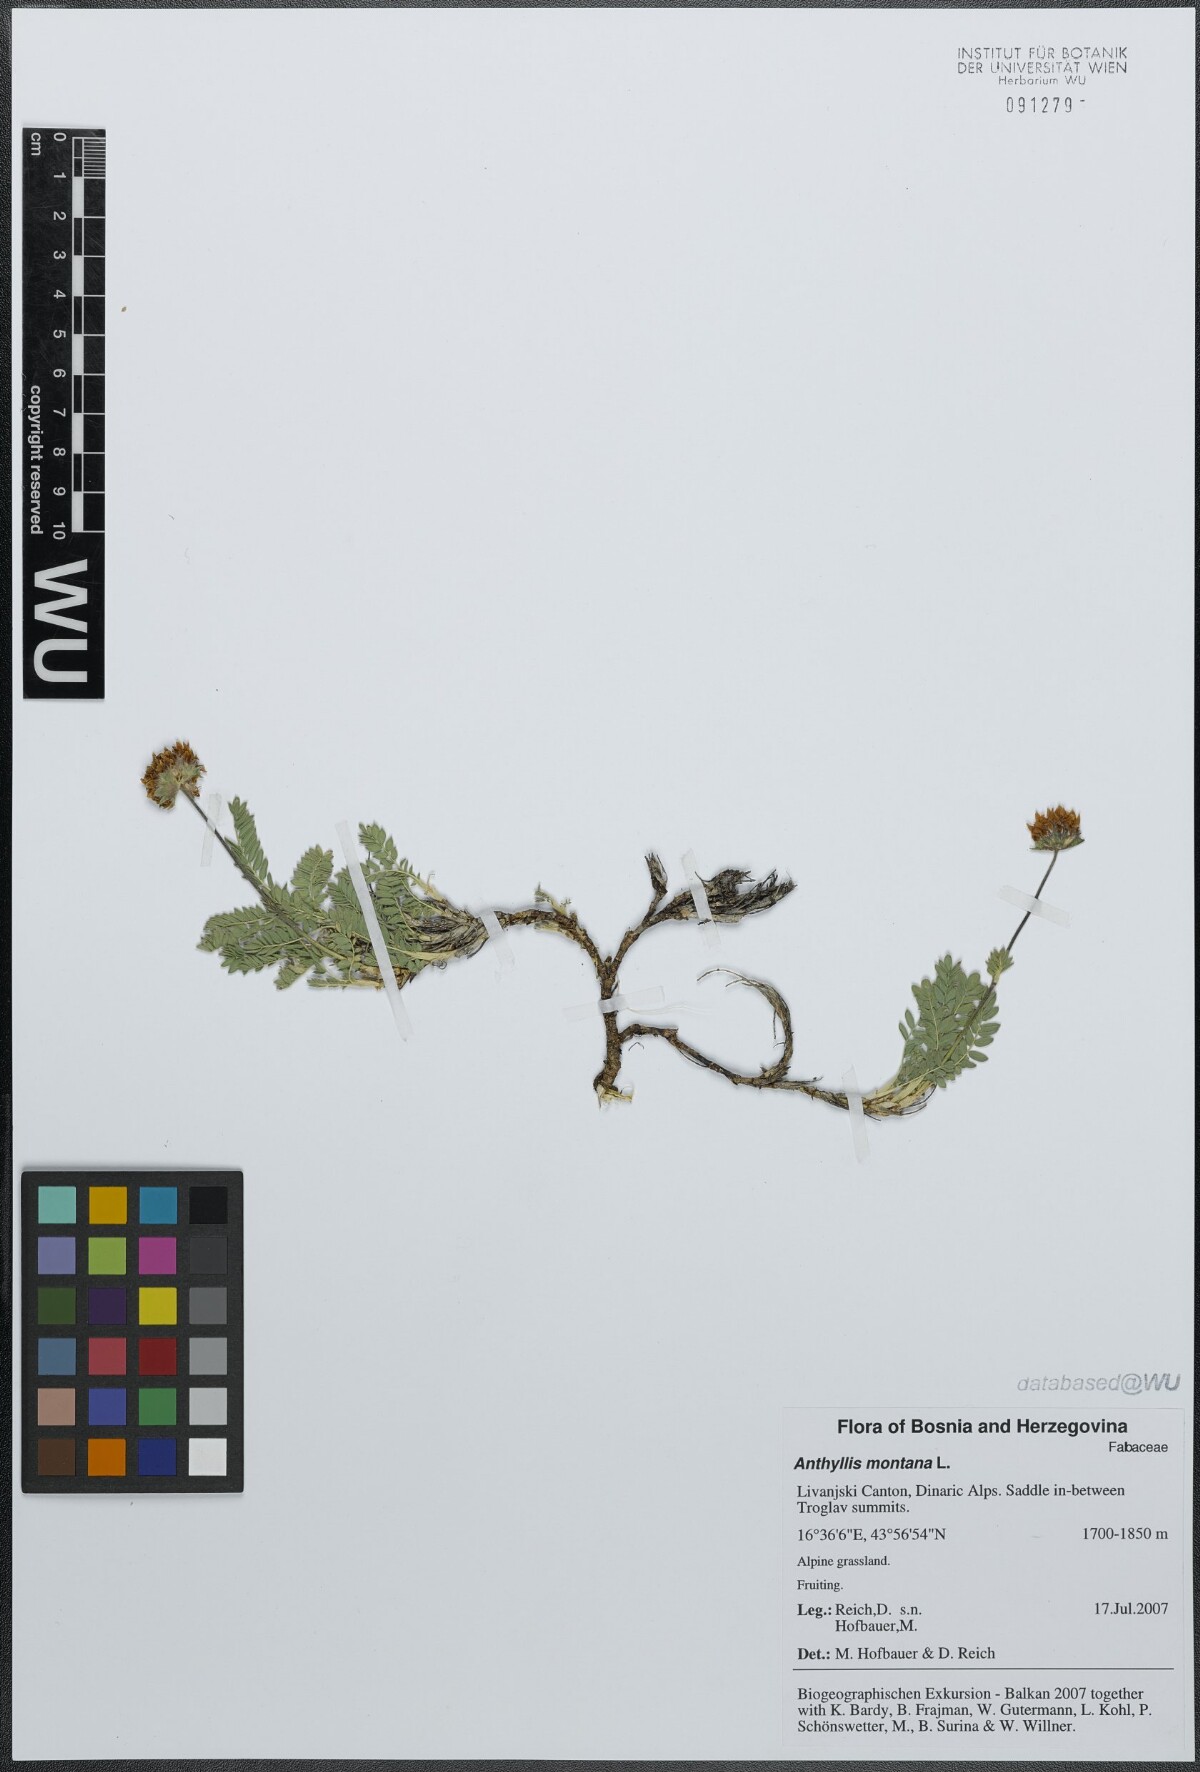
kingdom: Plantae
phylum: Tracheophyta
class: Magnoliopsida
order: Fabales
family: Fabaceae
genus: Anthyllis
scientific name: Anthyllis montana
